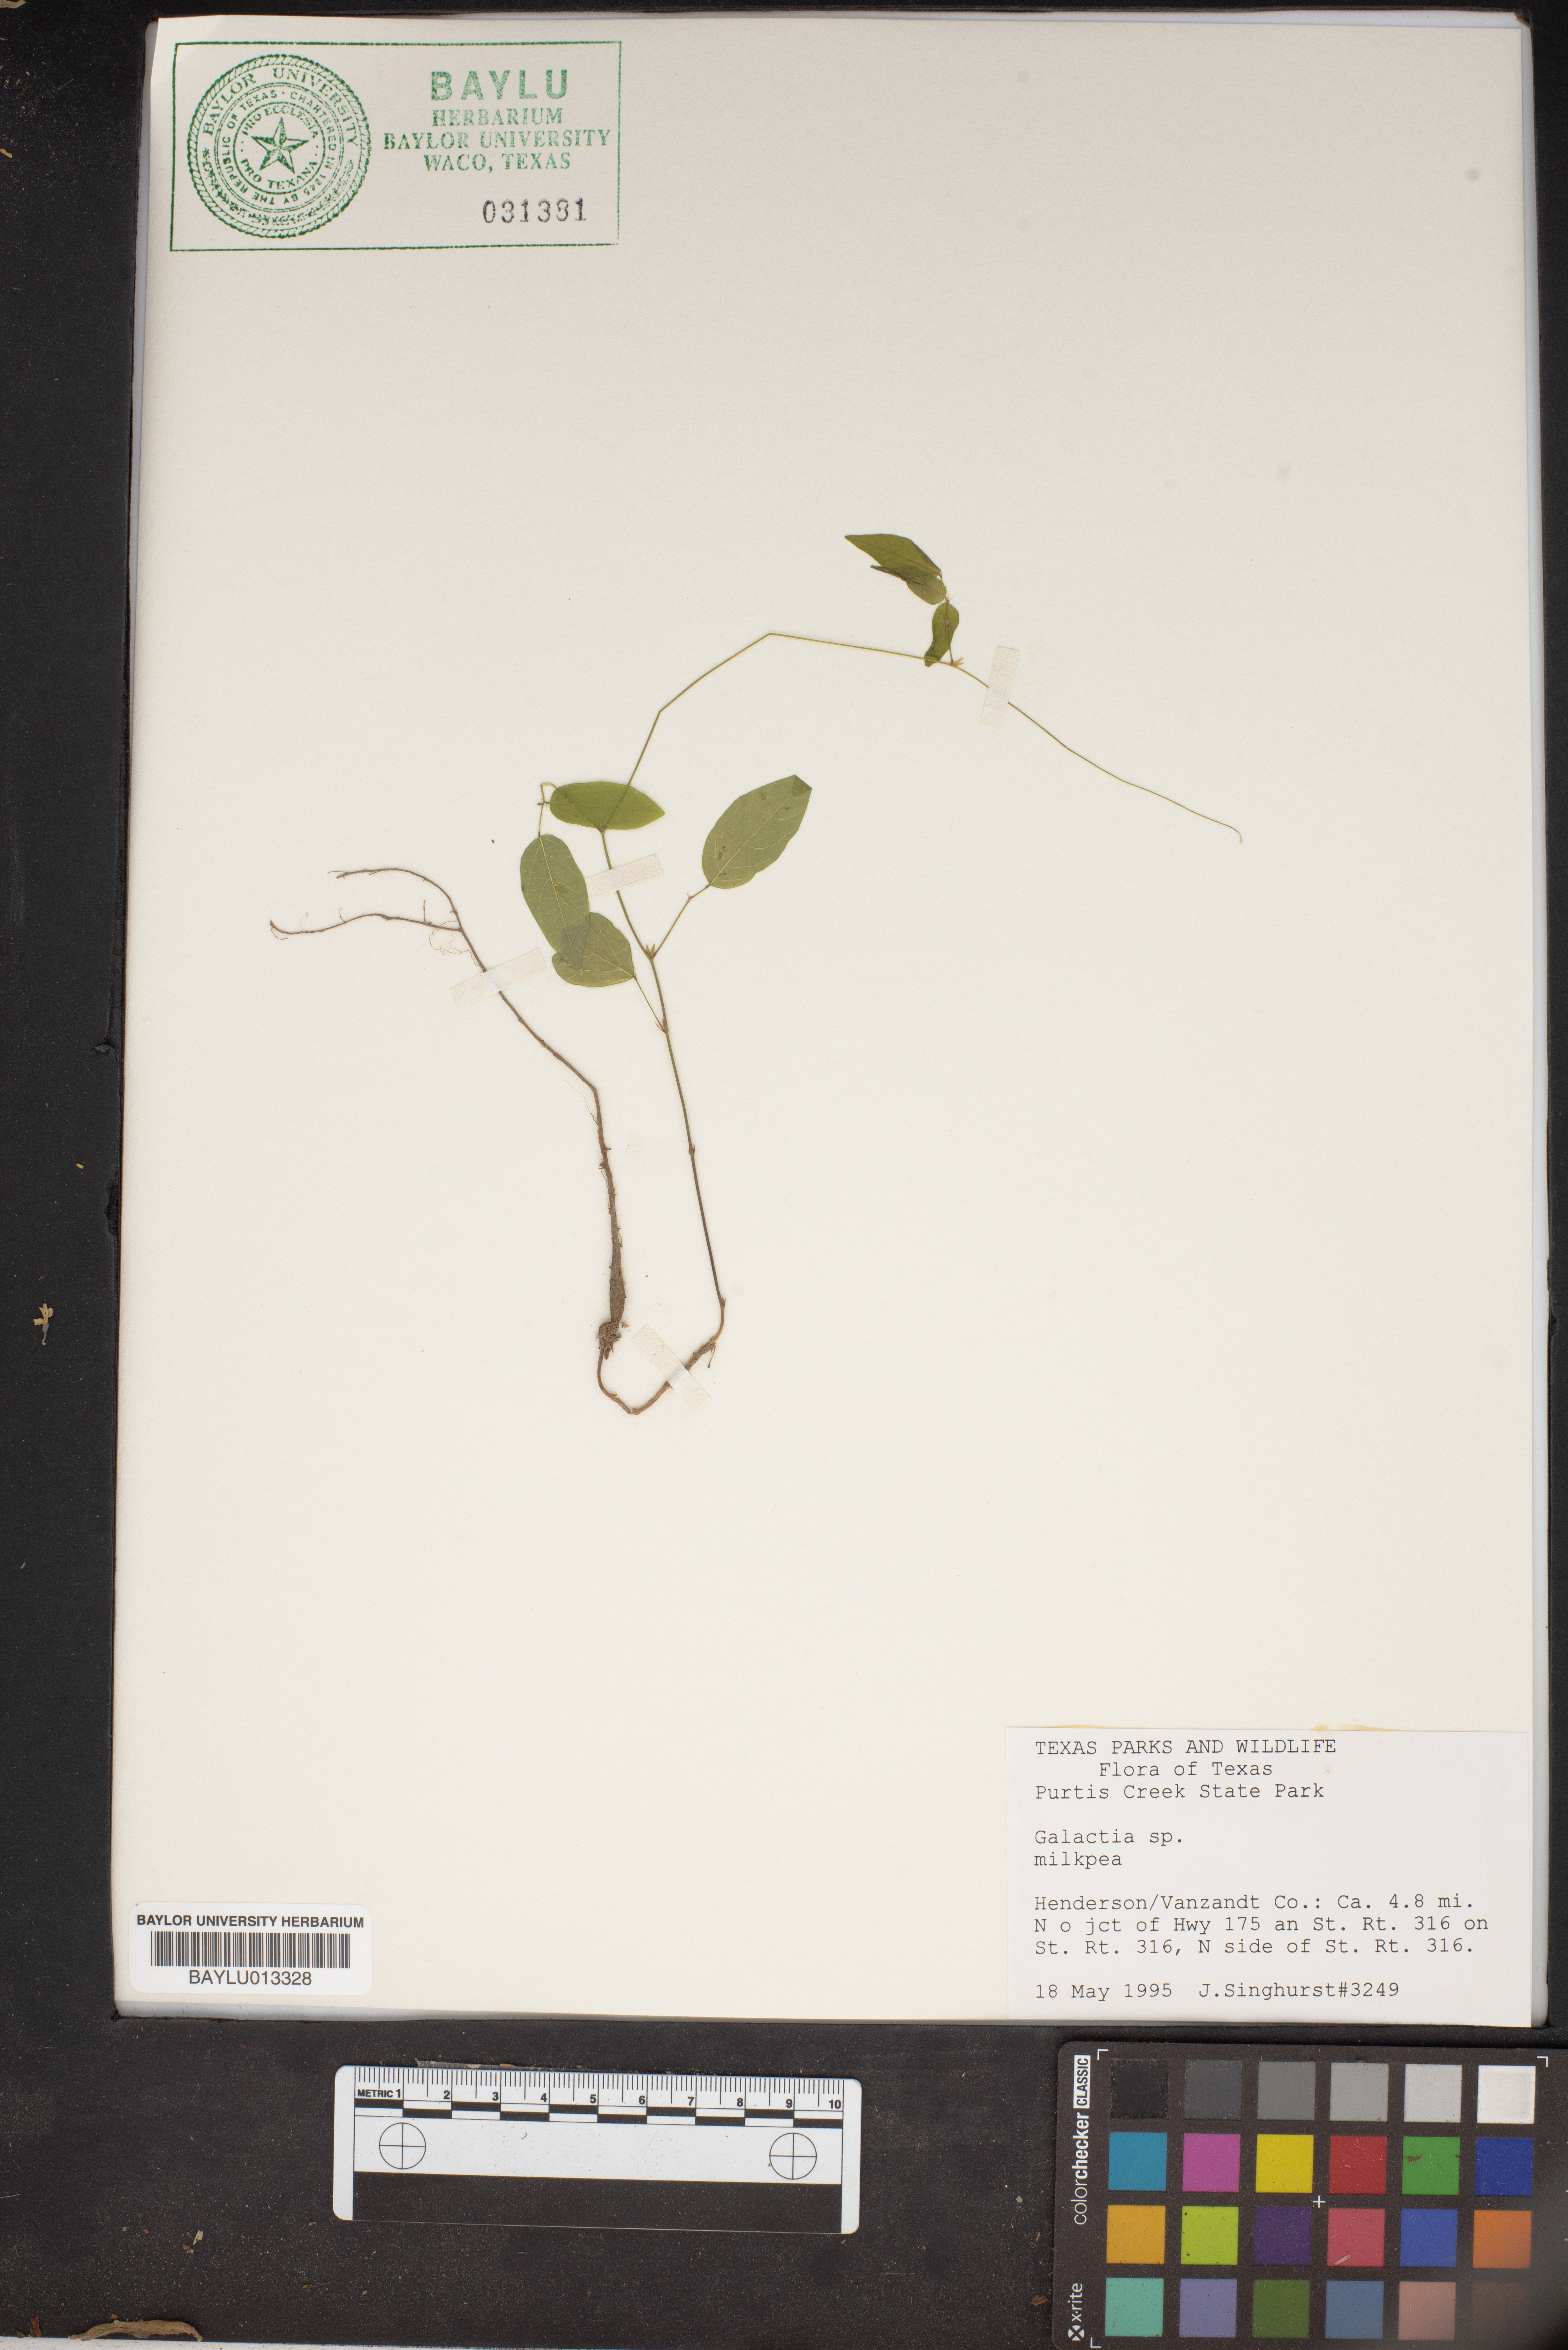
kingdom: Plantae
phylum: Tracheophyta
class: Magnoliopsida
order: Fabales
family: Fabaceae
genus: Galactia
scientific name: Galactia
